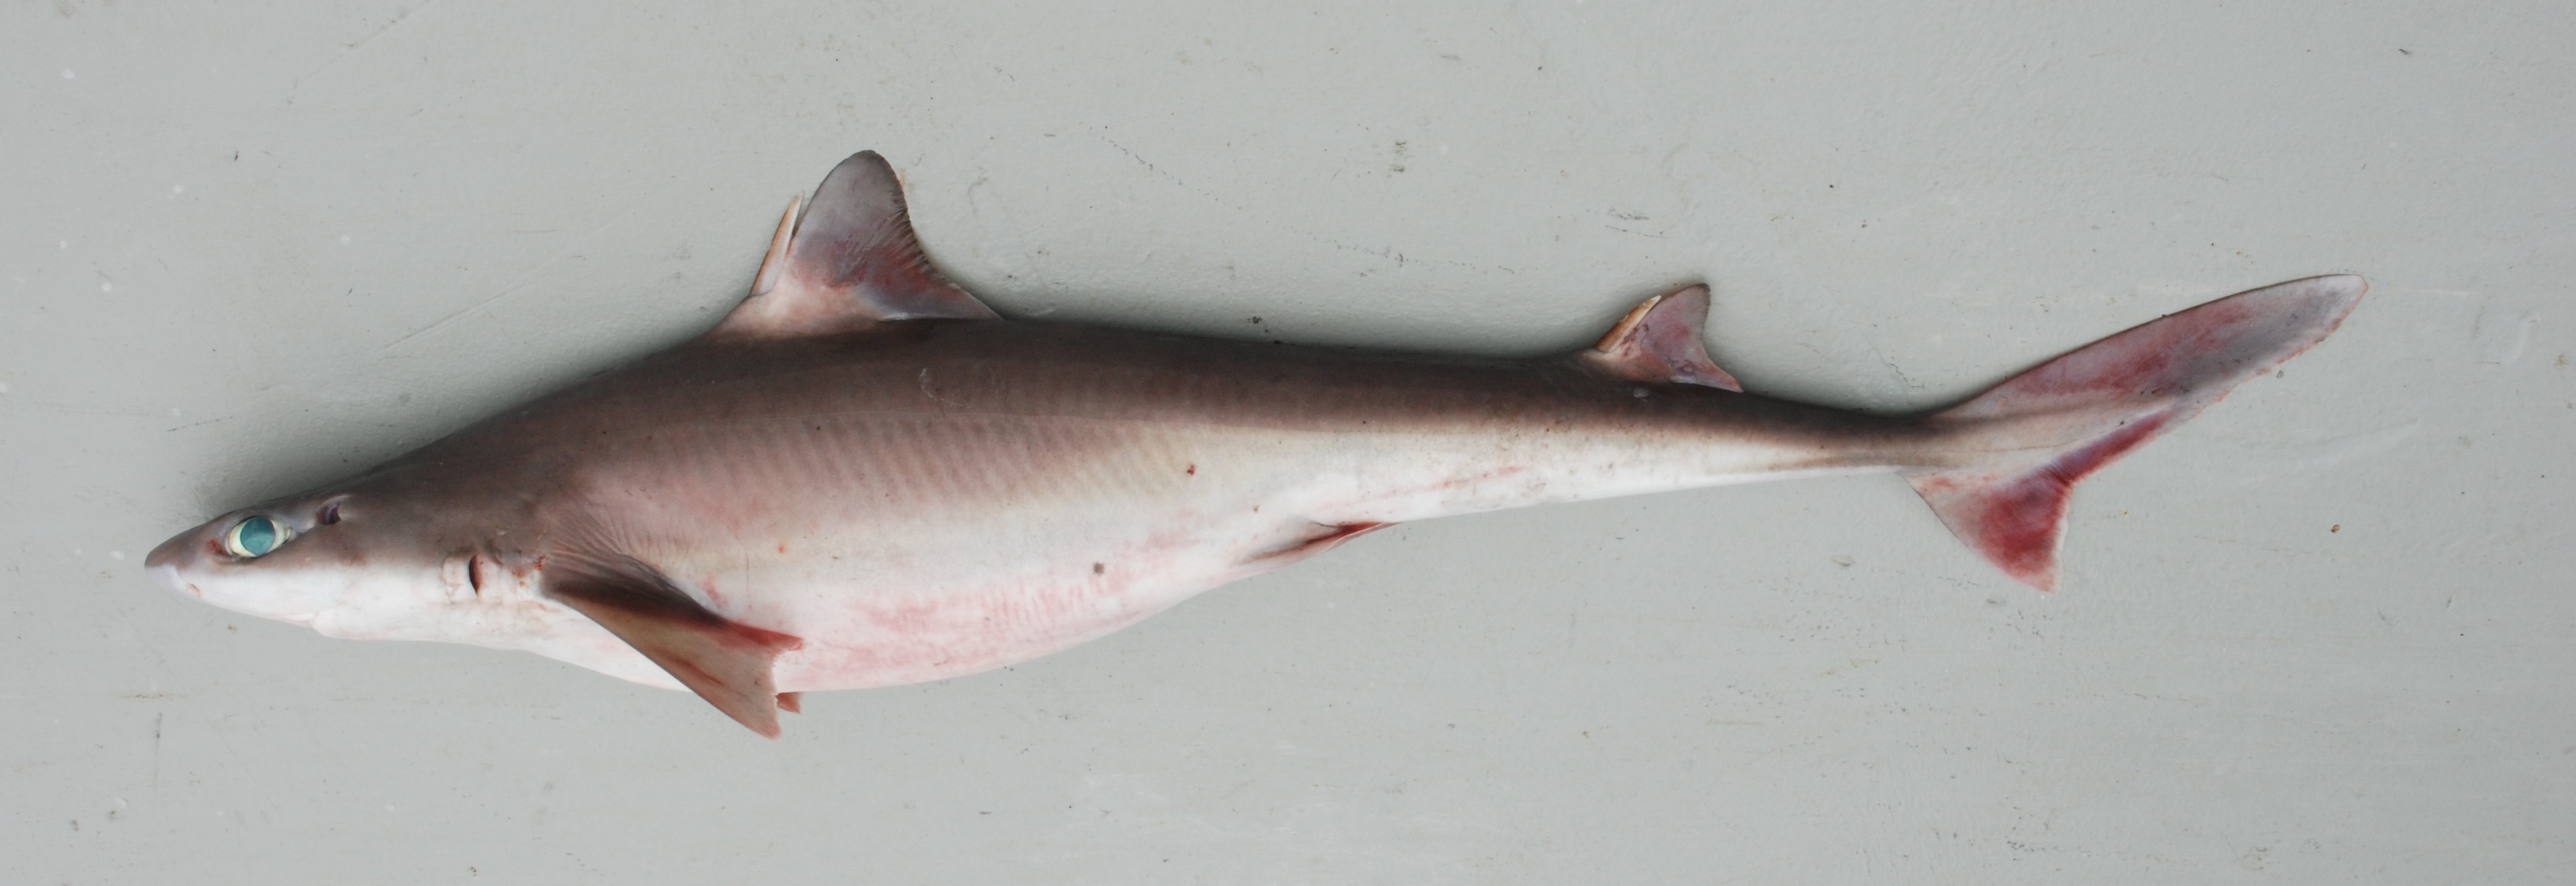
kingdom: Animalia
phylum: Chordata
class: Elasmobranchii
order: Squaliformes
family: Squalidae
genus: Squalus
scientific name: Squalus mitsukurii
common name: Shortspine spurdog
